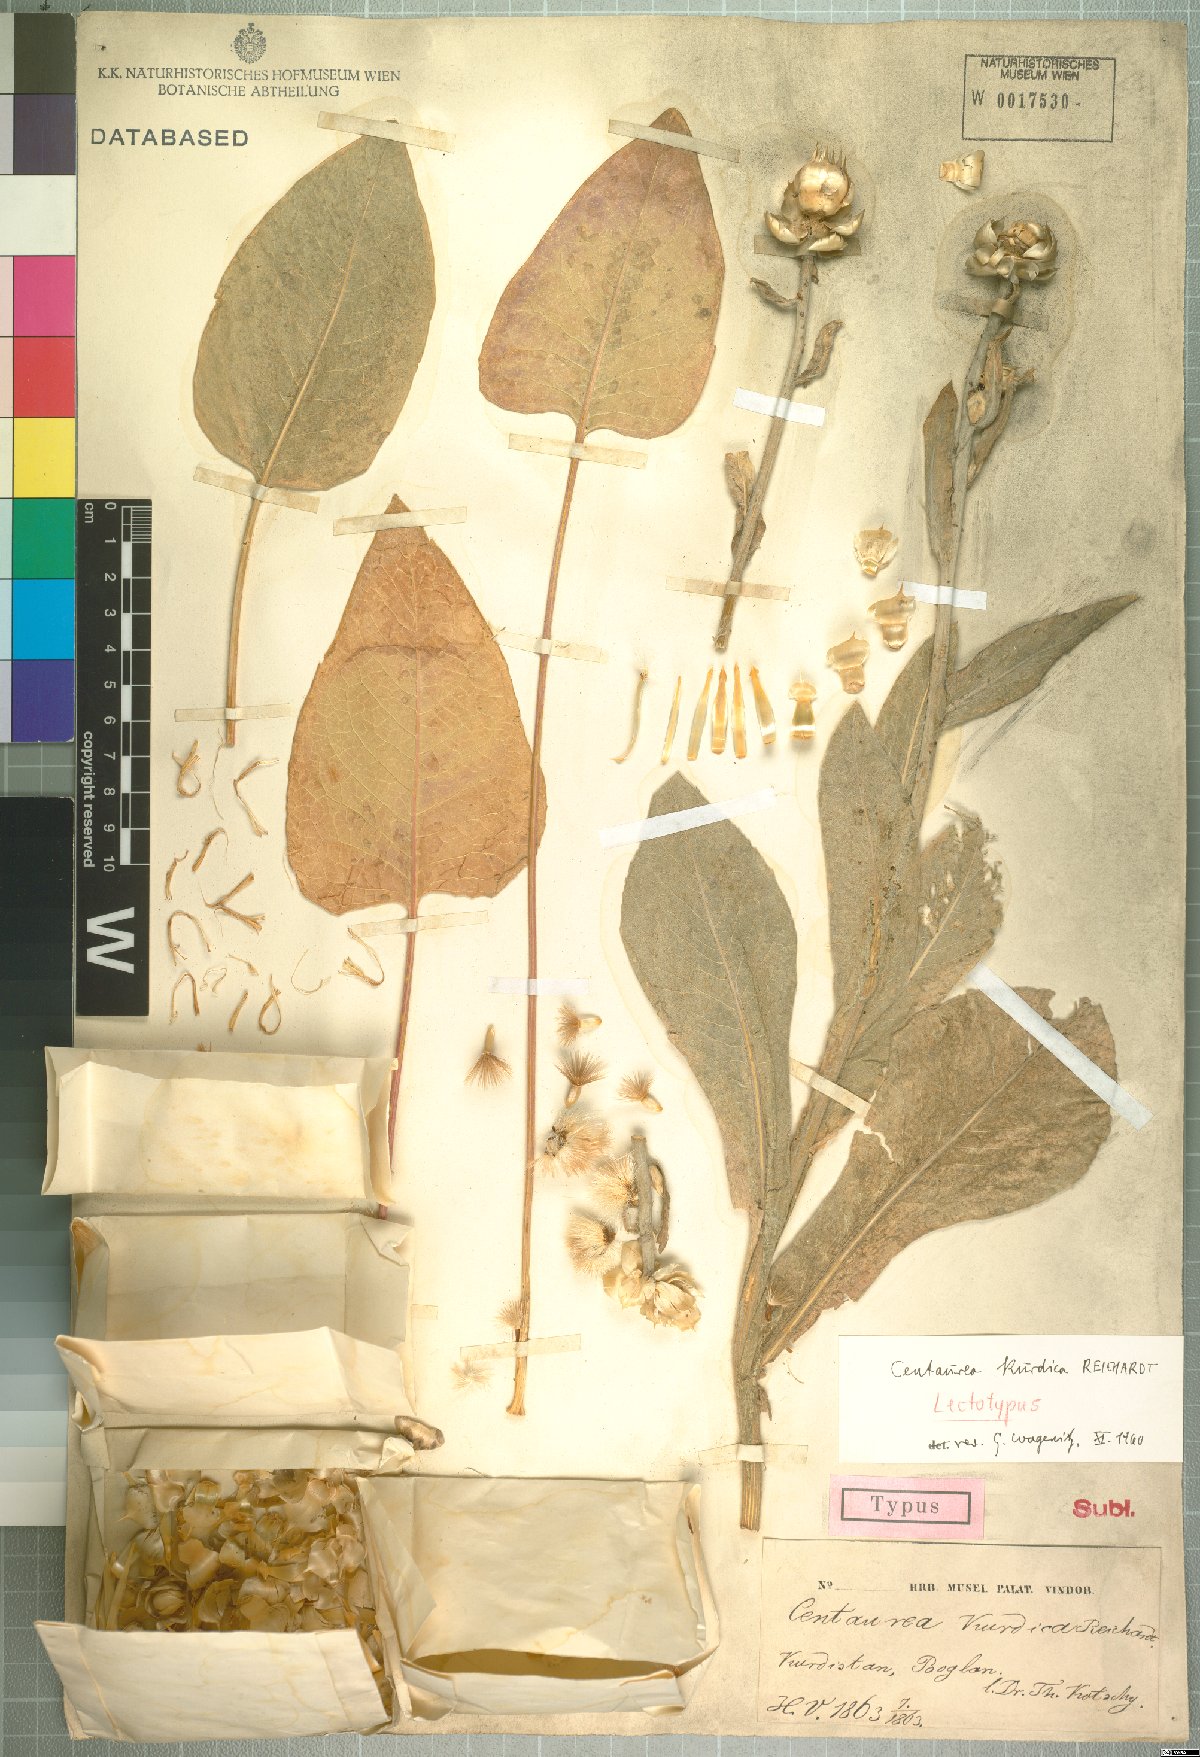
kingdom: Plantae
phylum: Tracheophyta
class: Magnoliopsida
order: Asterales
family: Asteraceae
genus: Centaurea
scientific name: Centaurea kurdica
